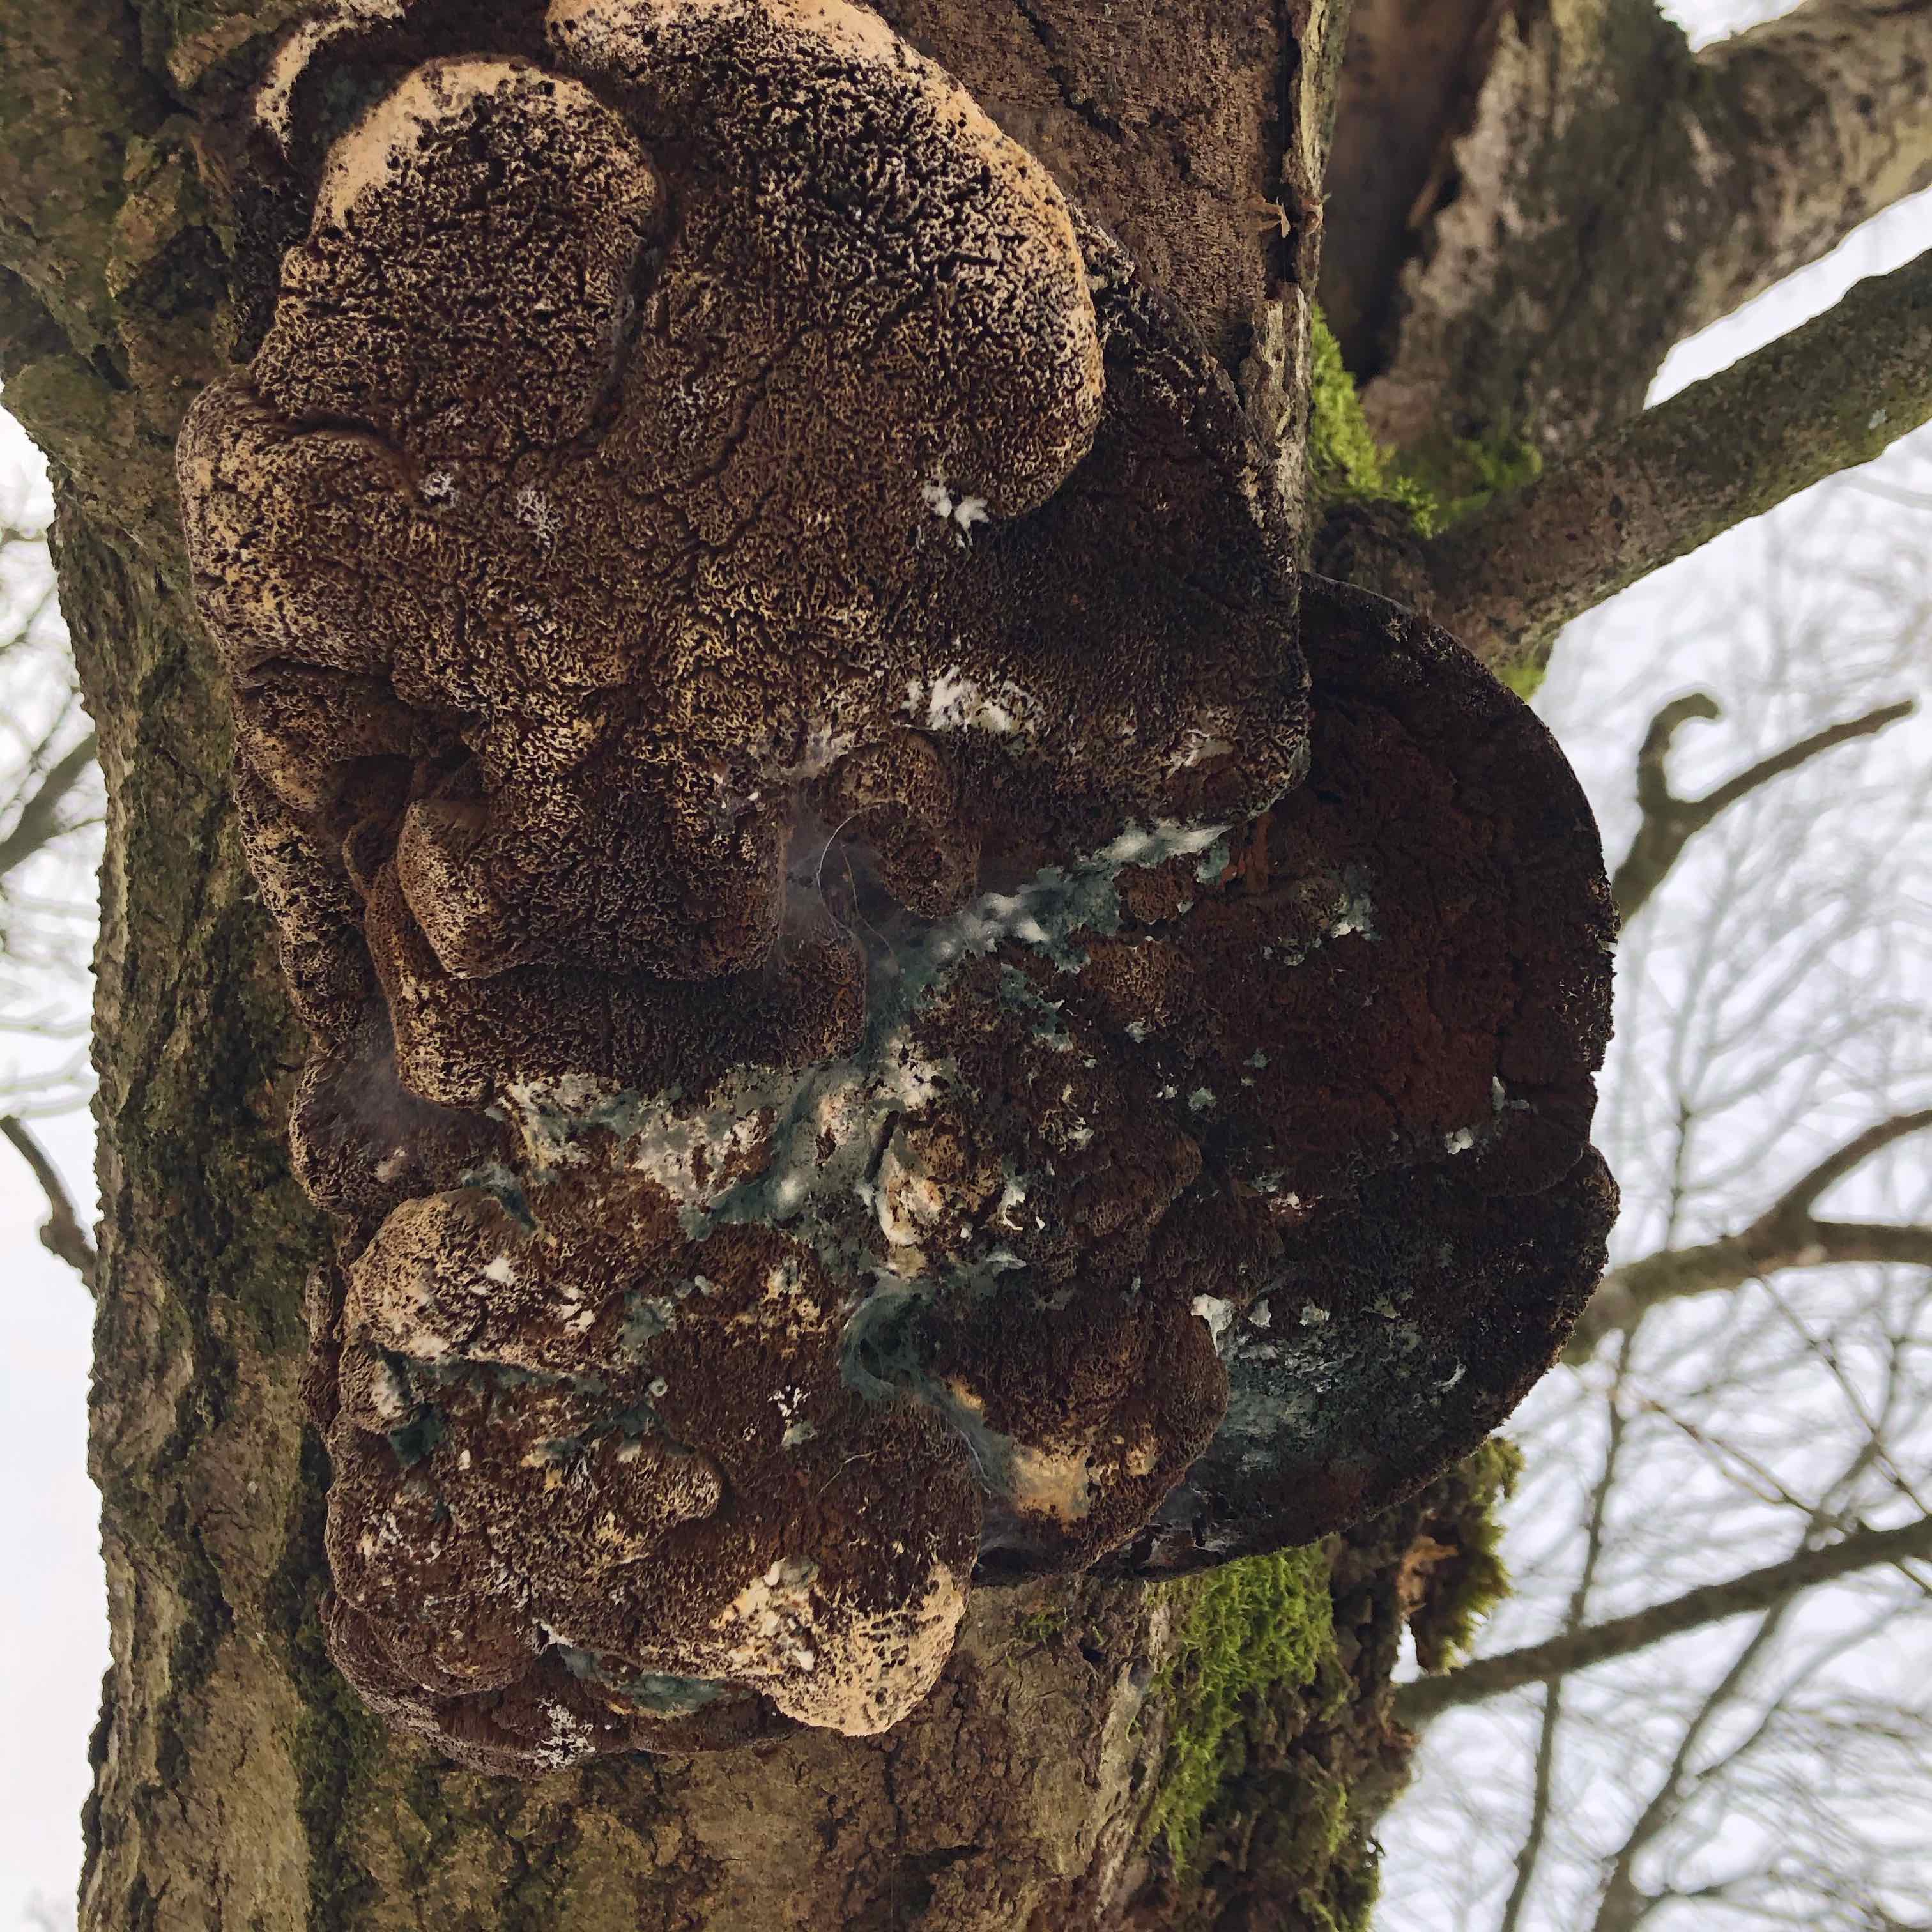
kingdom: Fungi
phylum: Basidiomycota
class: Agaricomycetes
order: Hymenochaetales
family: Hymenochaetaceae
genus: Inocutis
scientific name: Inocutis rheades
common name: ræve-spejlporesvamp
